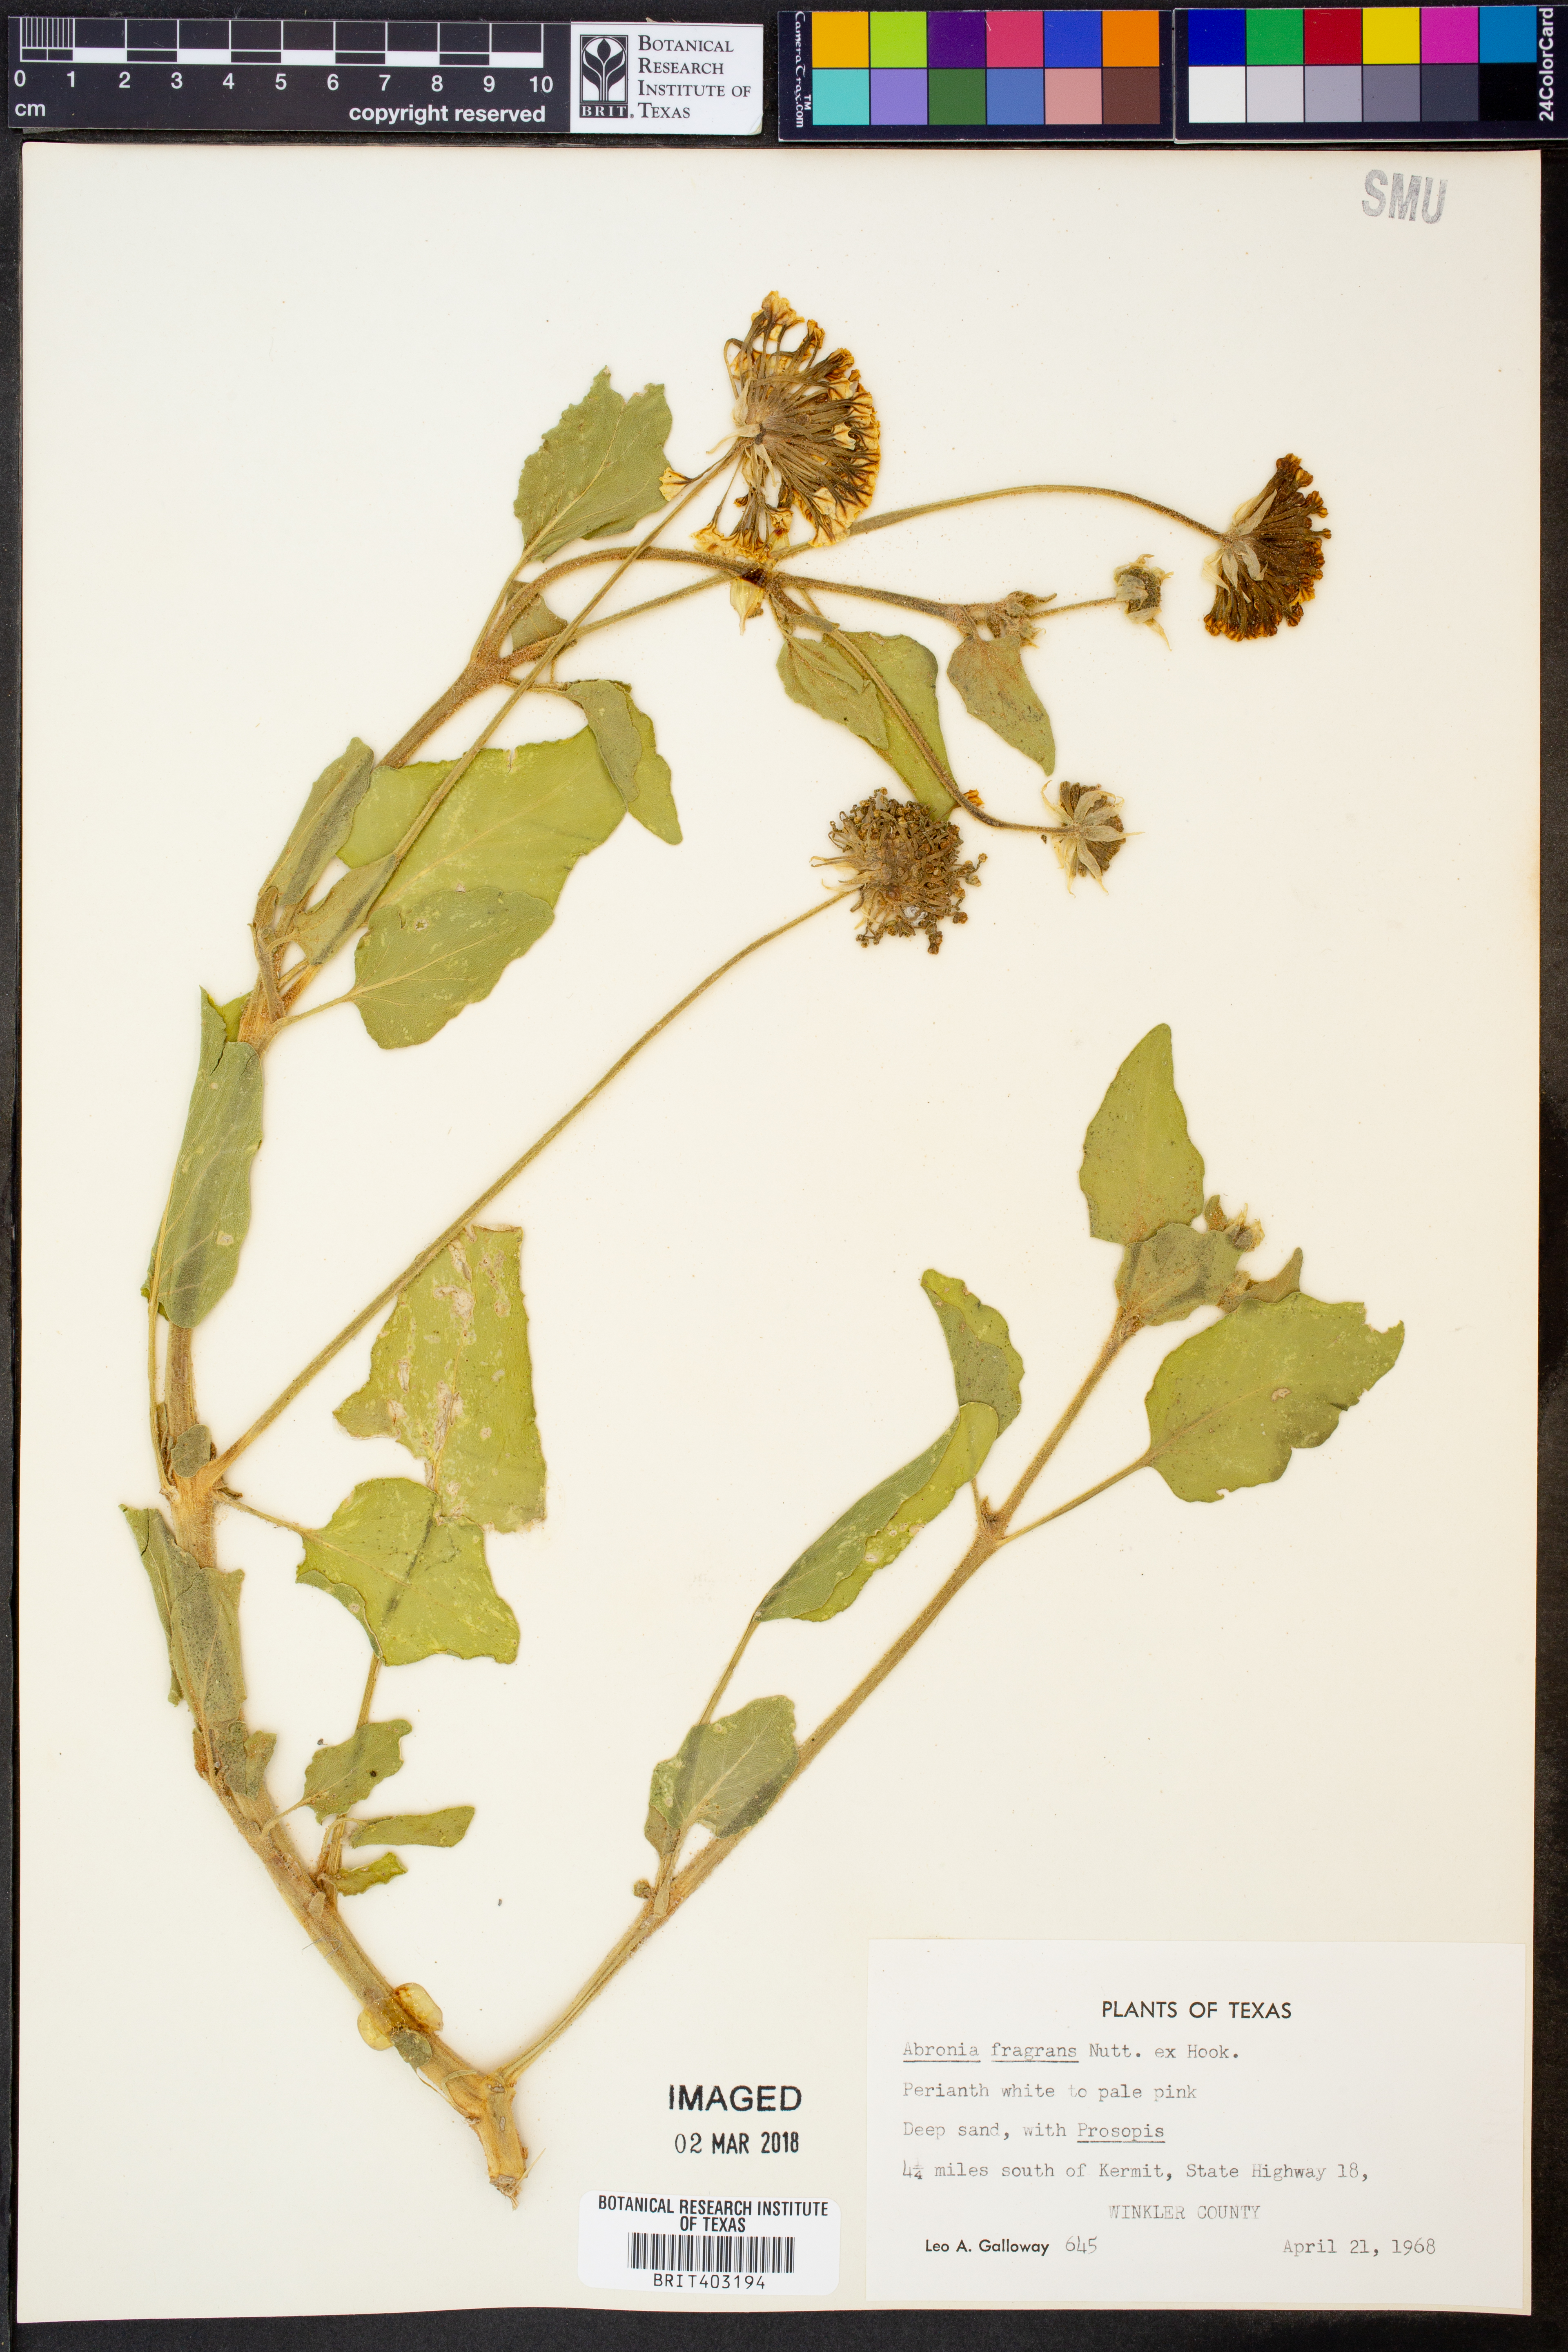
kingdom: Plantae
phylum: Tracheophyta
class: Magnoliopsida
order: Caryophyllales
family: Nyctaginaceae
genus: Abronia
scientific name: Abronia fragrans
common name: Fragrant sand-verbena
